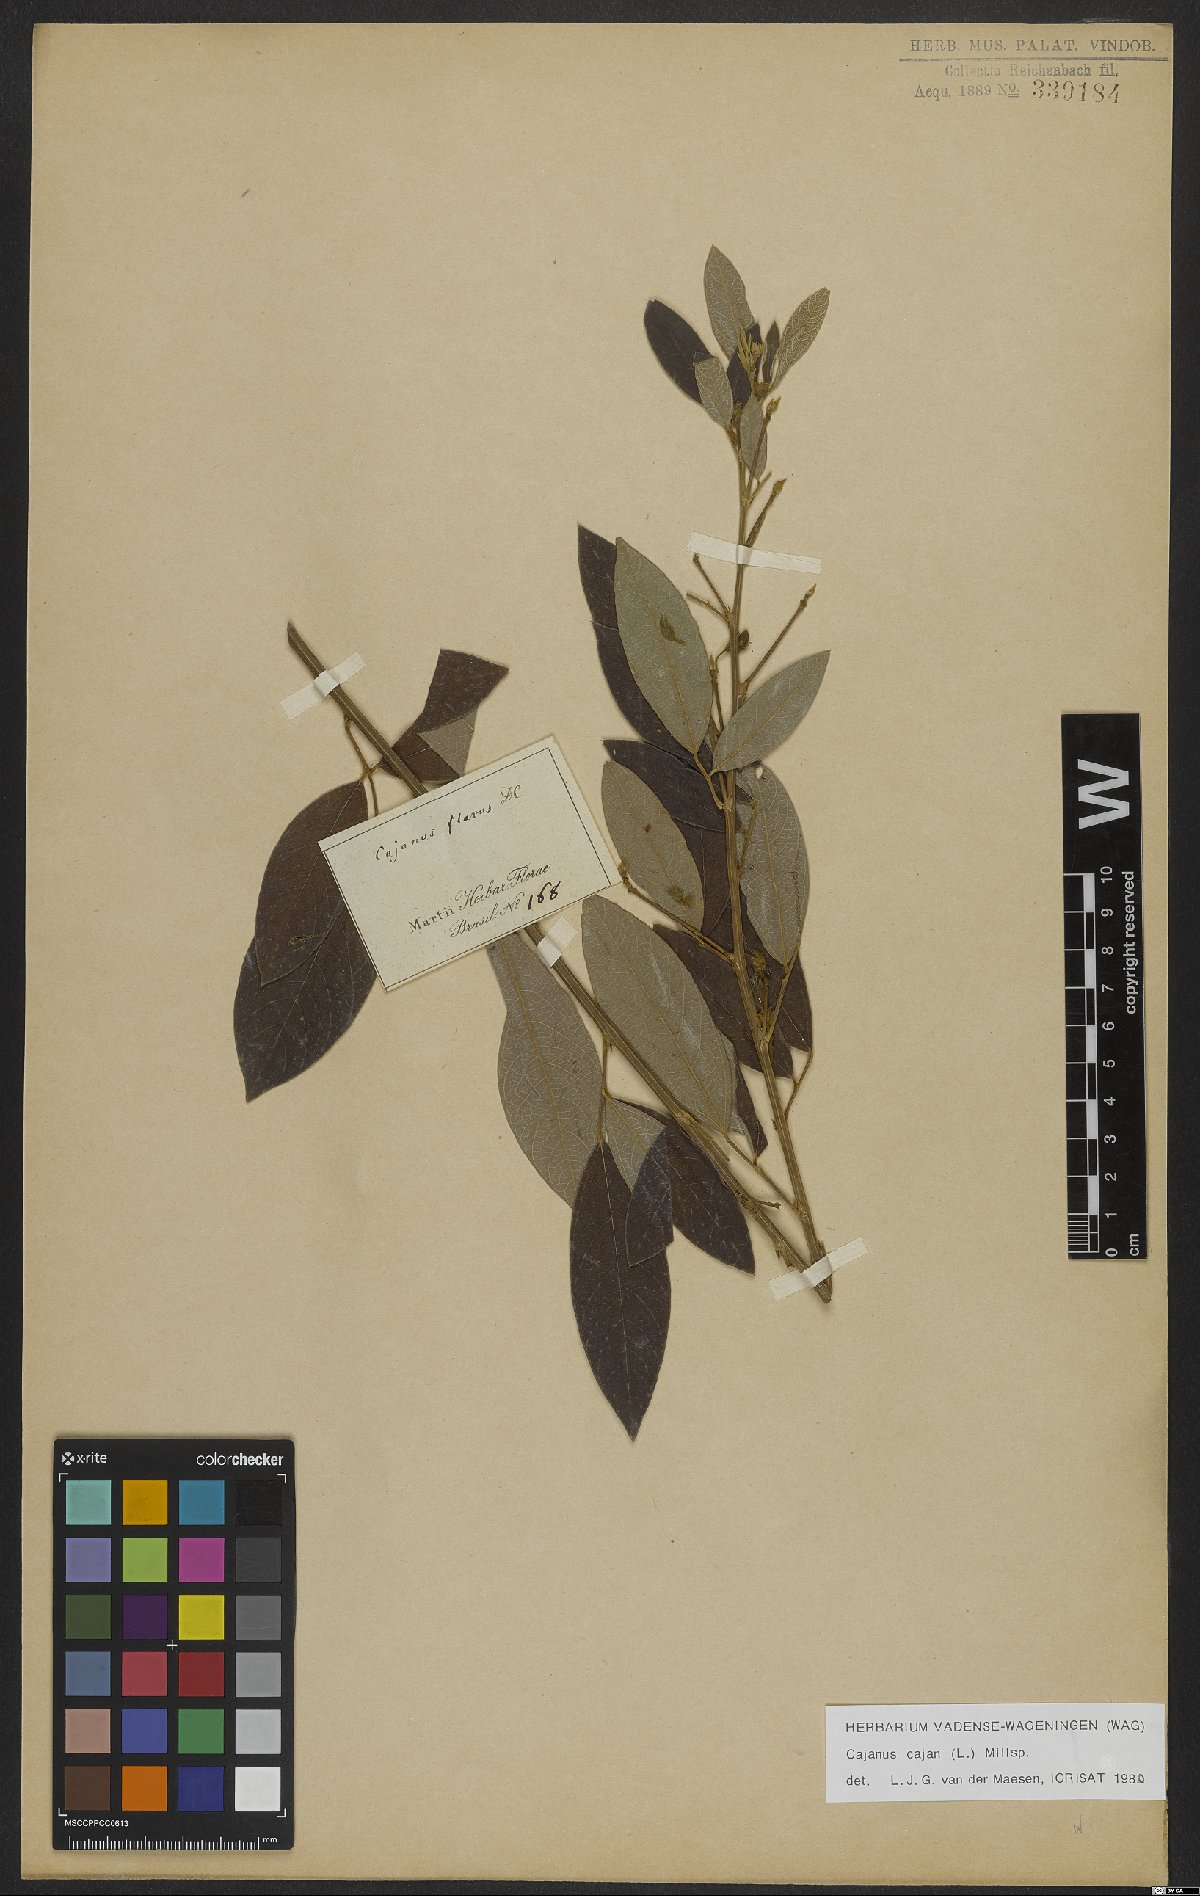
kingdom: Plantae
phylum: Tracheophyta
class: Magnoliopsida
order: Fabales
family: Fabaceae
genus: Cajanus
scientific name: Cajanus cajan
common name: Pigeonpea
